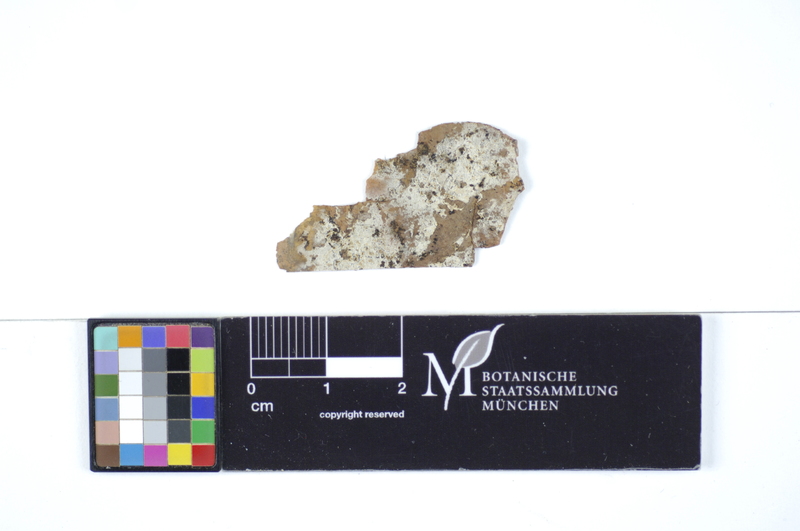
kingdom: Fungi
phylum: Basidiomycota
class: Agaricomycetes
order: Hymenochaetales
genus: Kurtia
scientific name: Kurtia macedonica
